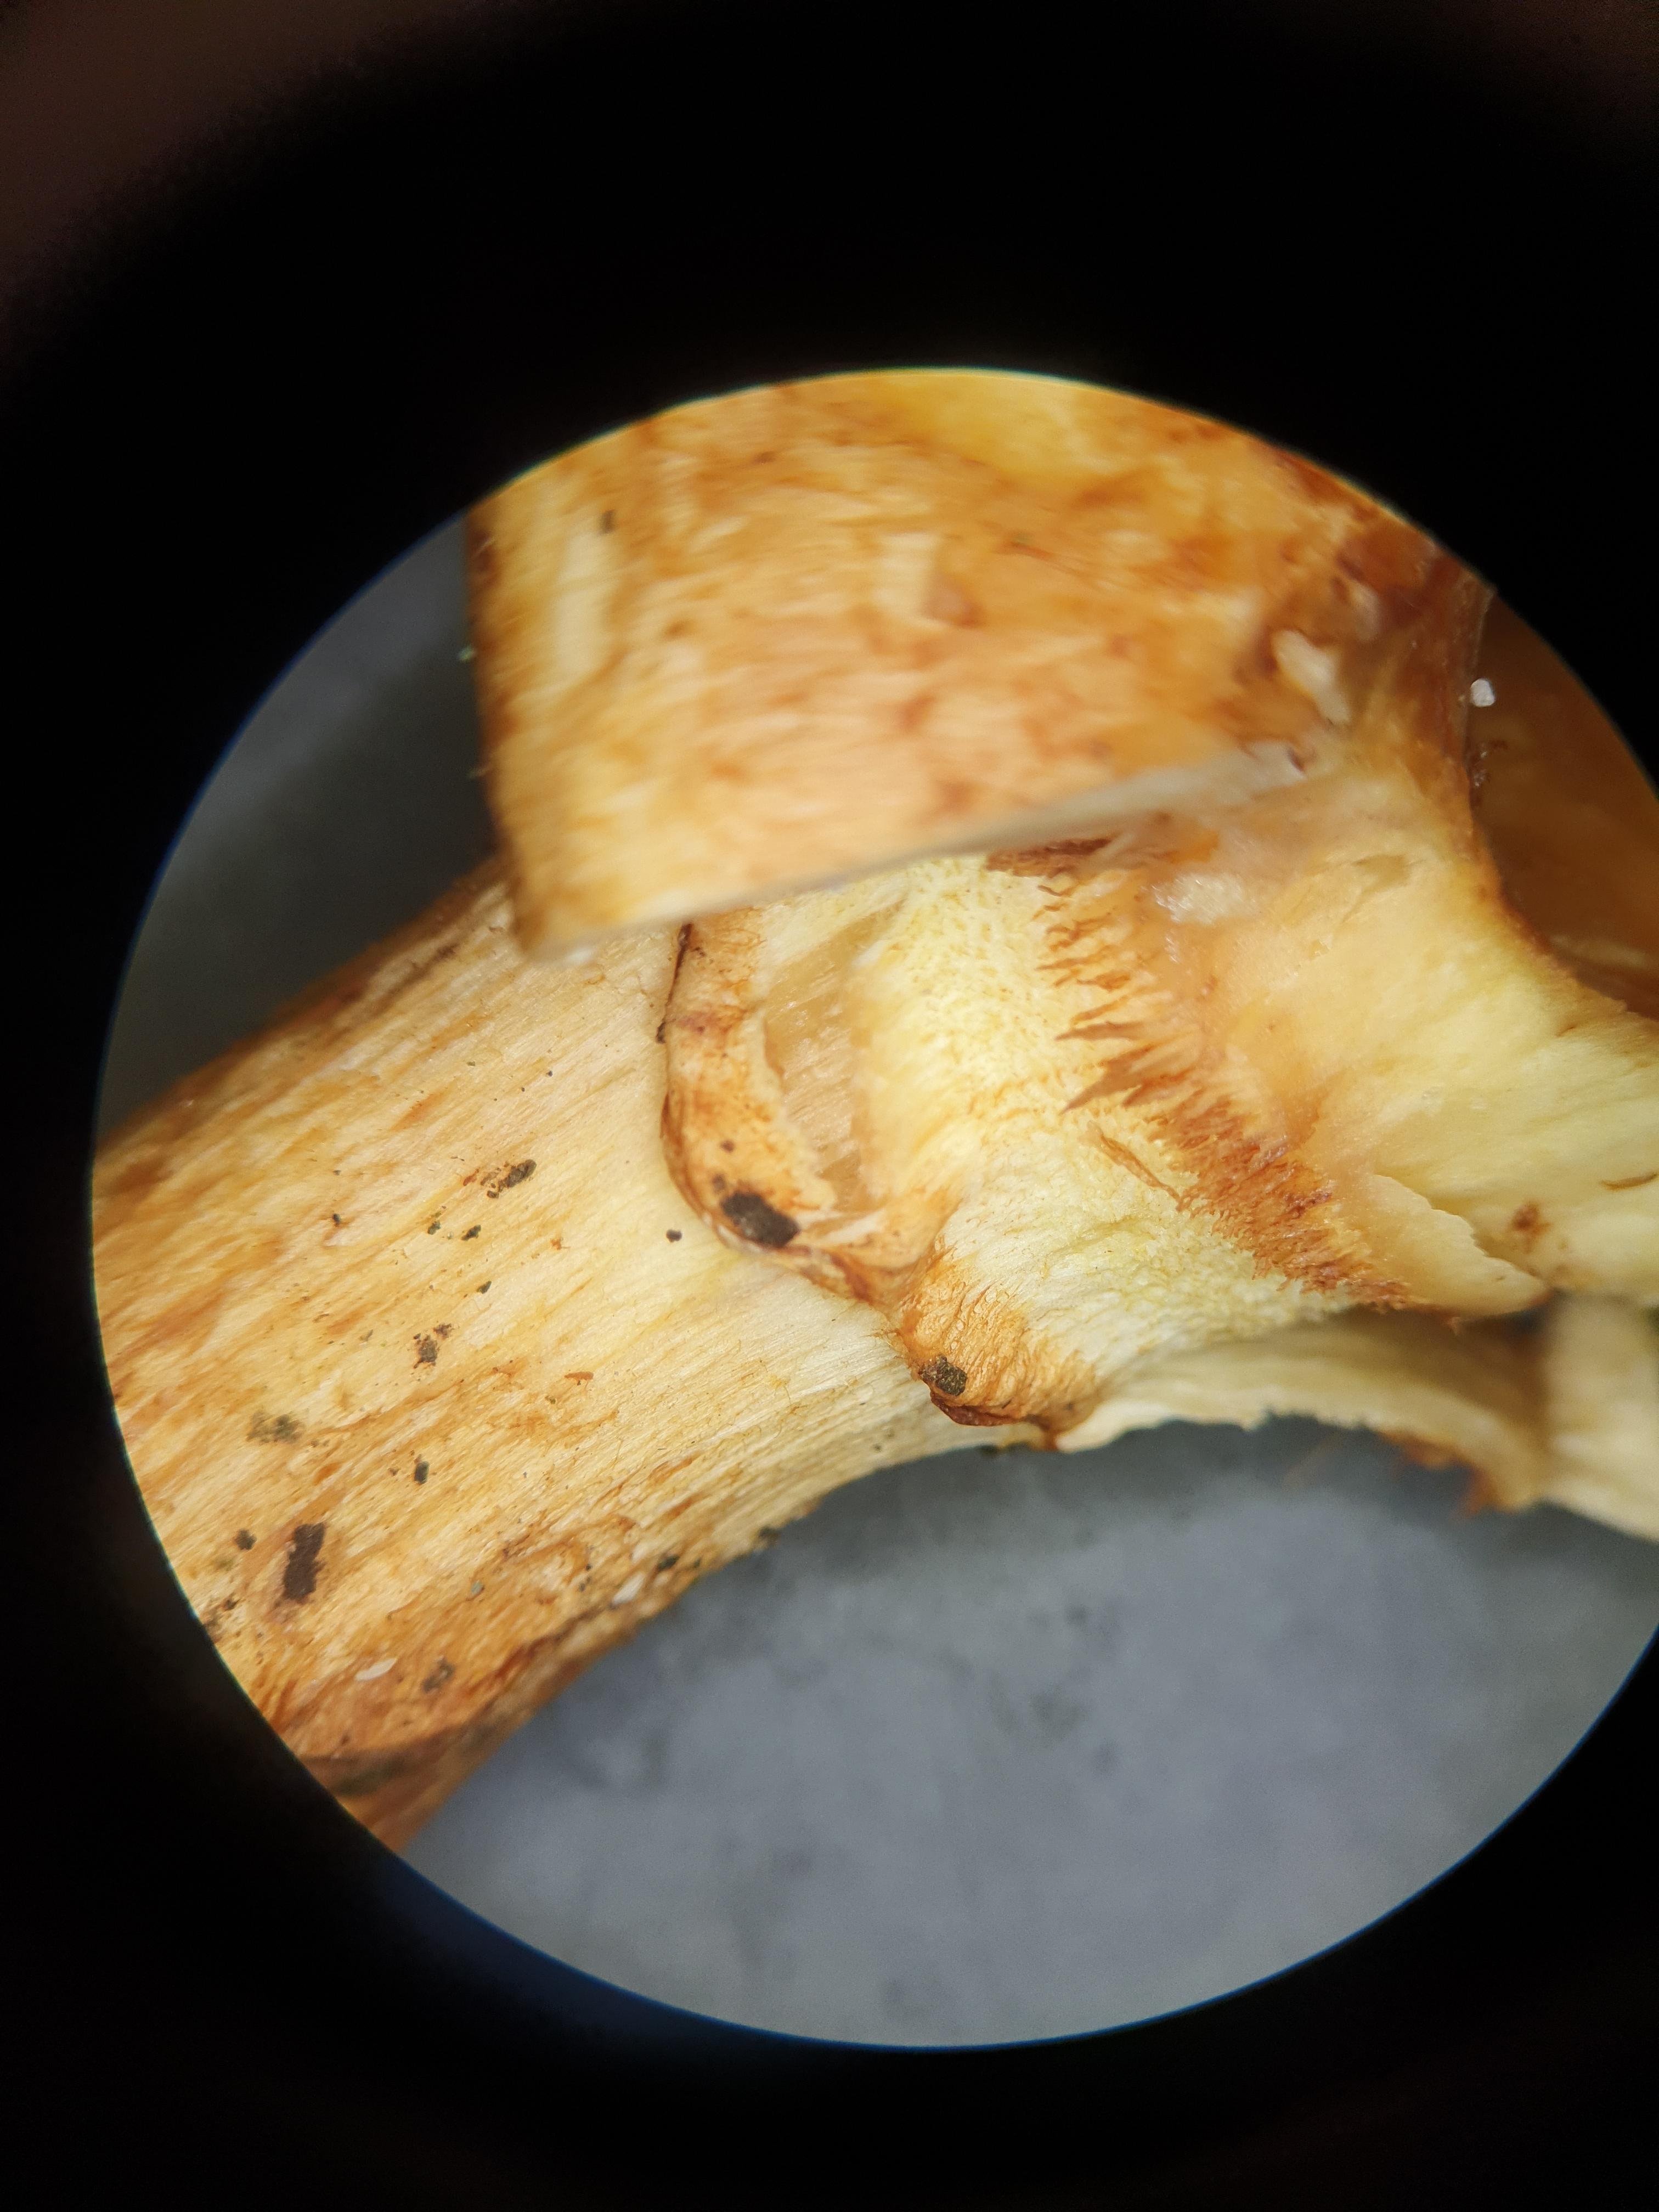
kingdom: Fungi
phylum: Basidiomycota
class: Agaricomycetes
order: Agaricales
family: Hymenogastraceae
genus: Gymnopilus
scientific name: Gymnopilus spectabilis
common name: fibret flammehat
